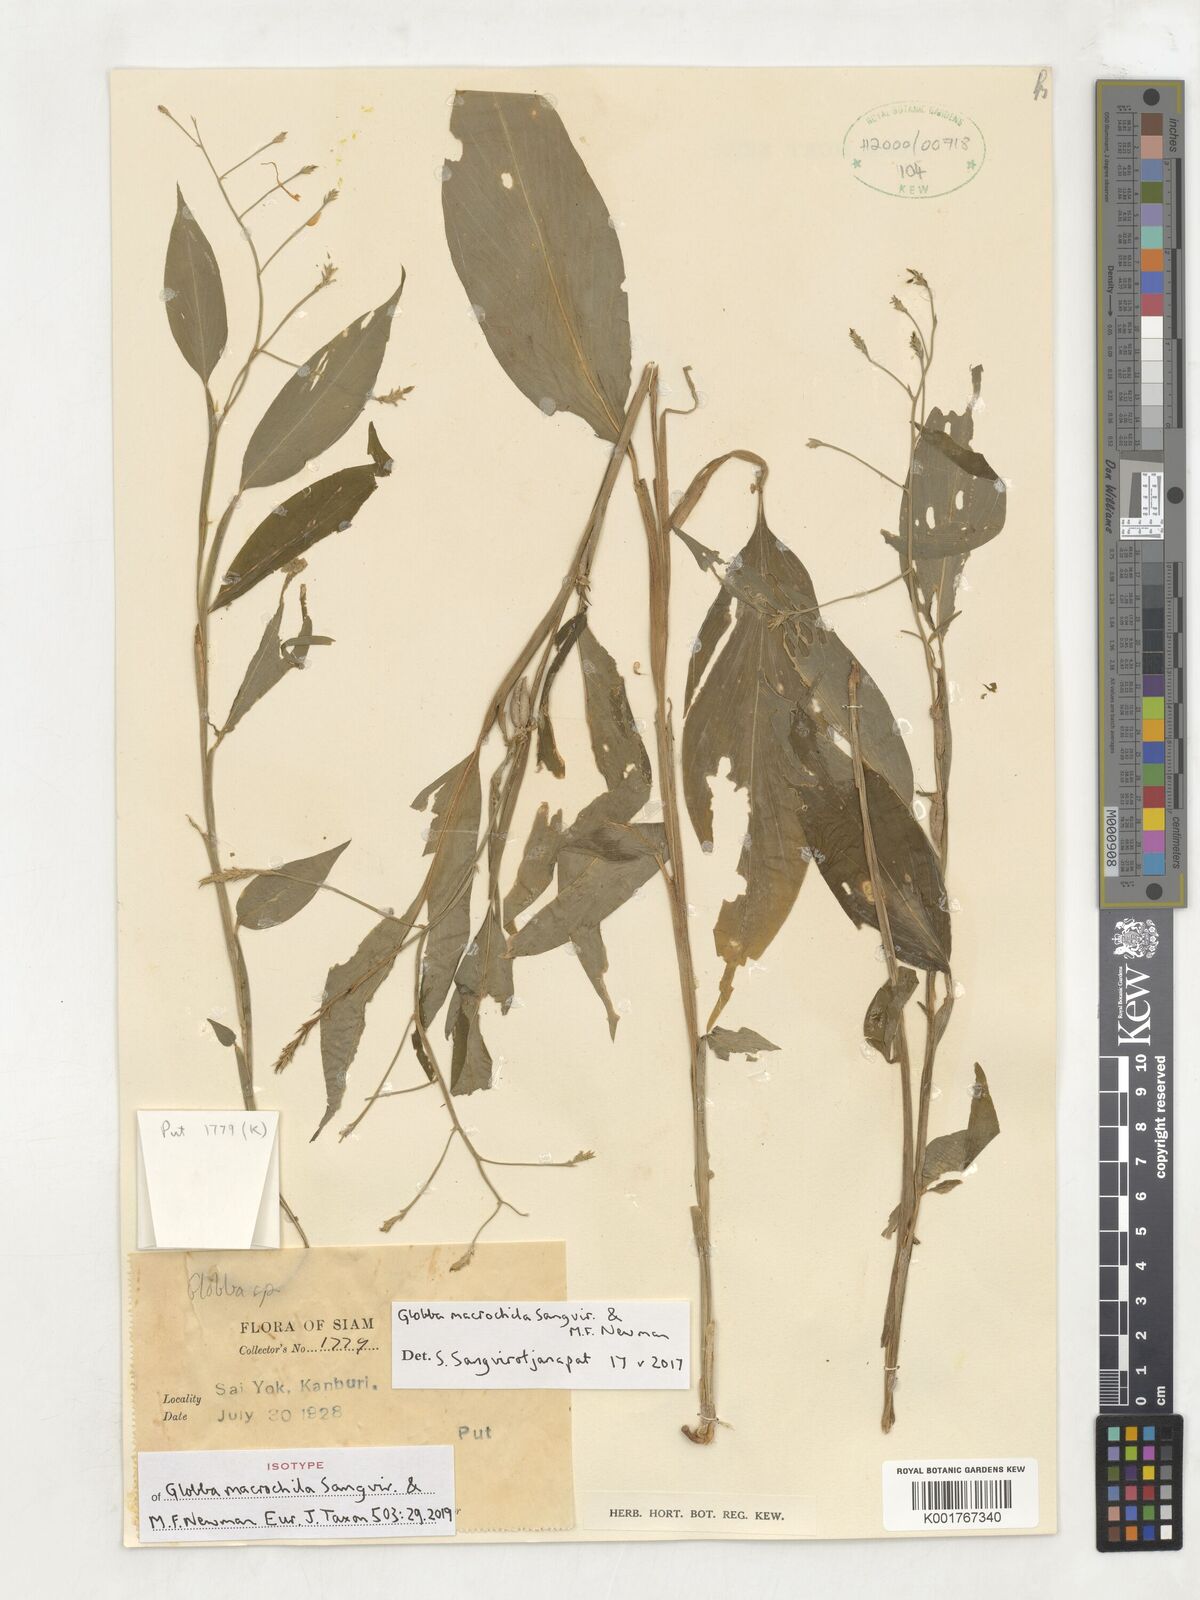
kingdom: Plantae
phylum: Tracheophyta
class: Liliopsida
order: Zingiberales
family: Zingiberaceae
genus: Globba
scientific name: Globba macrochila
